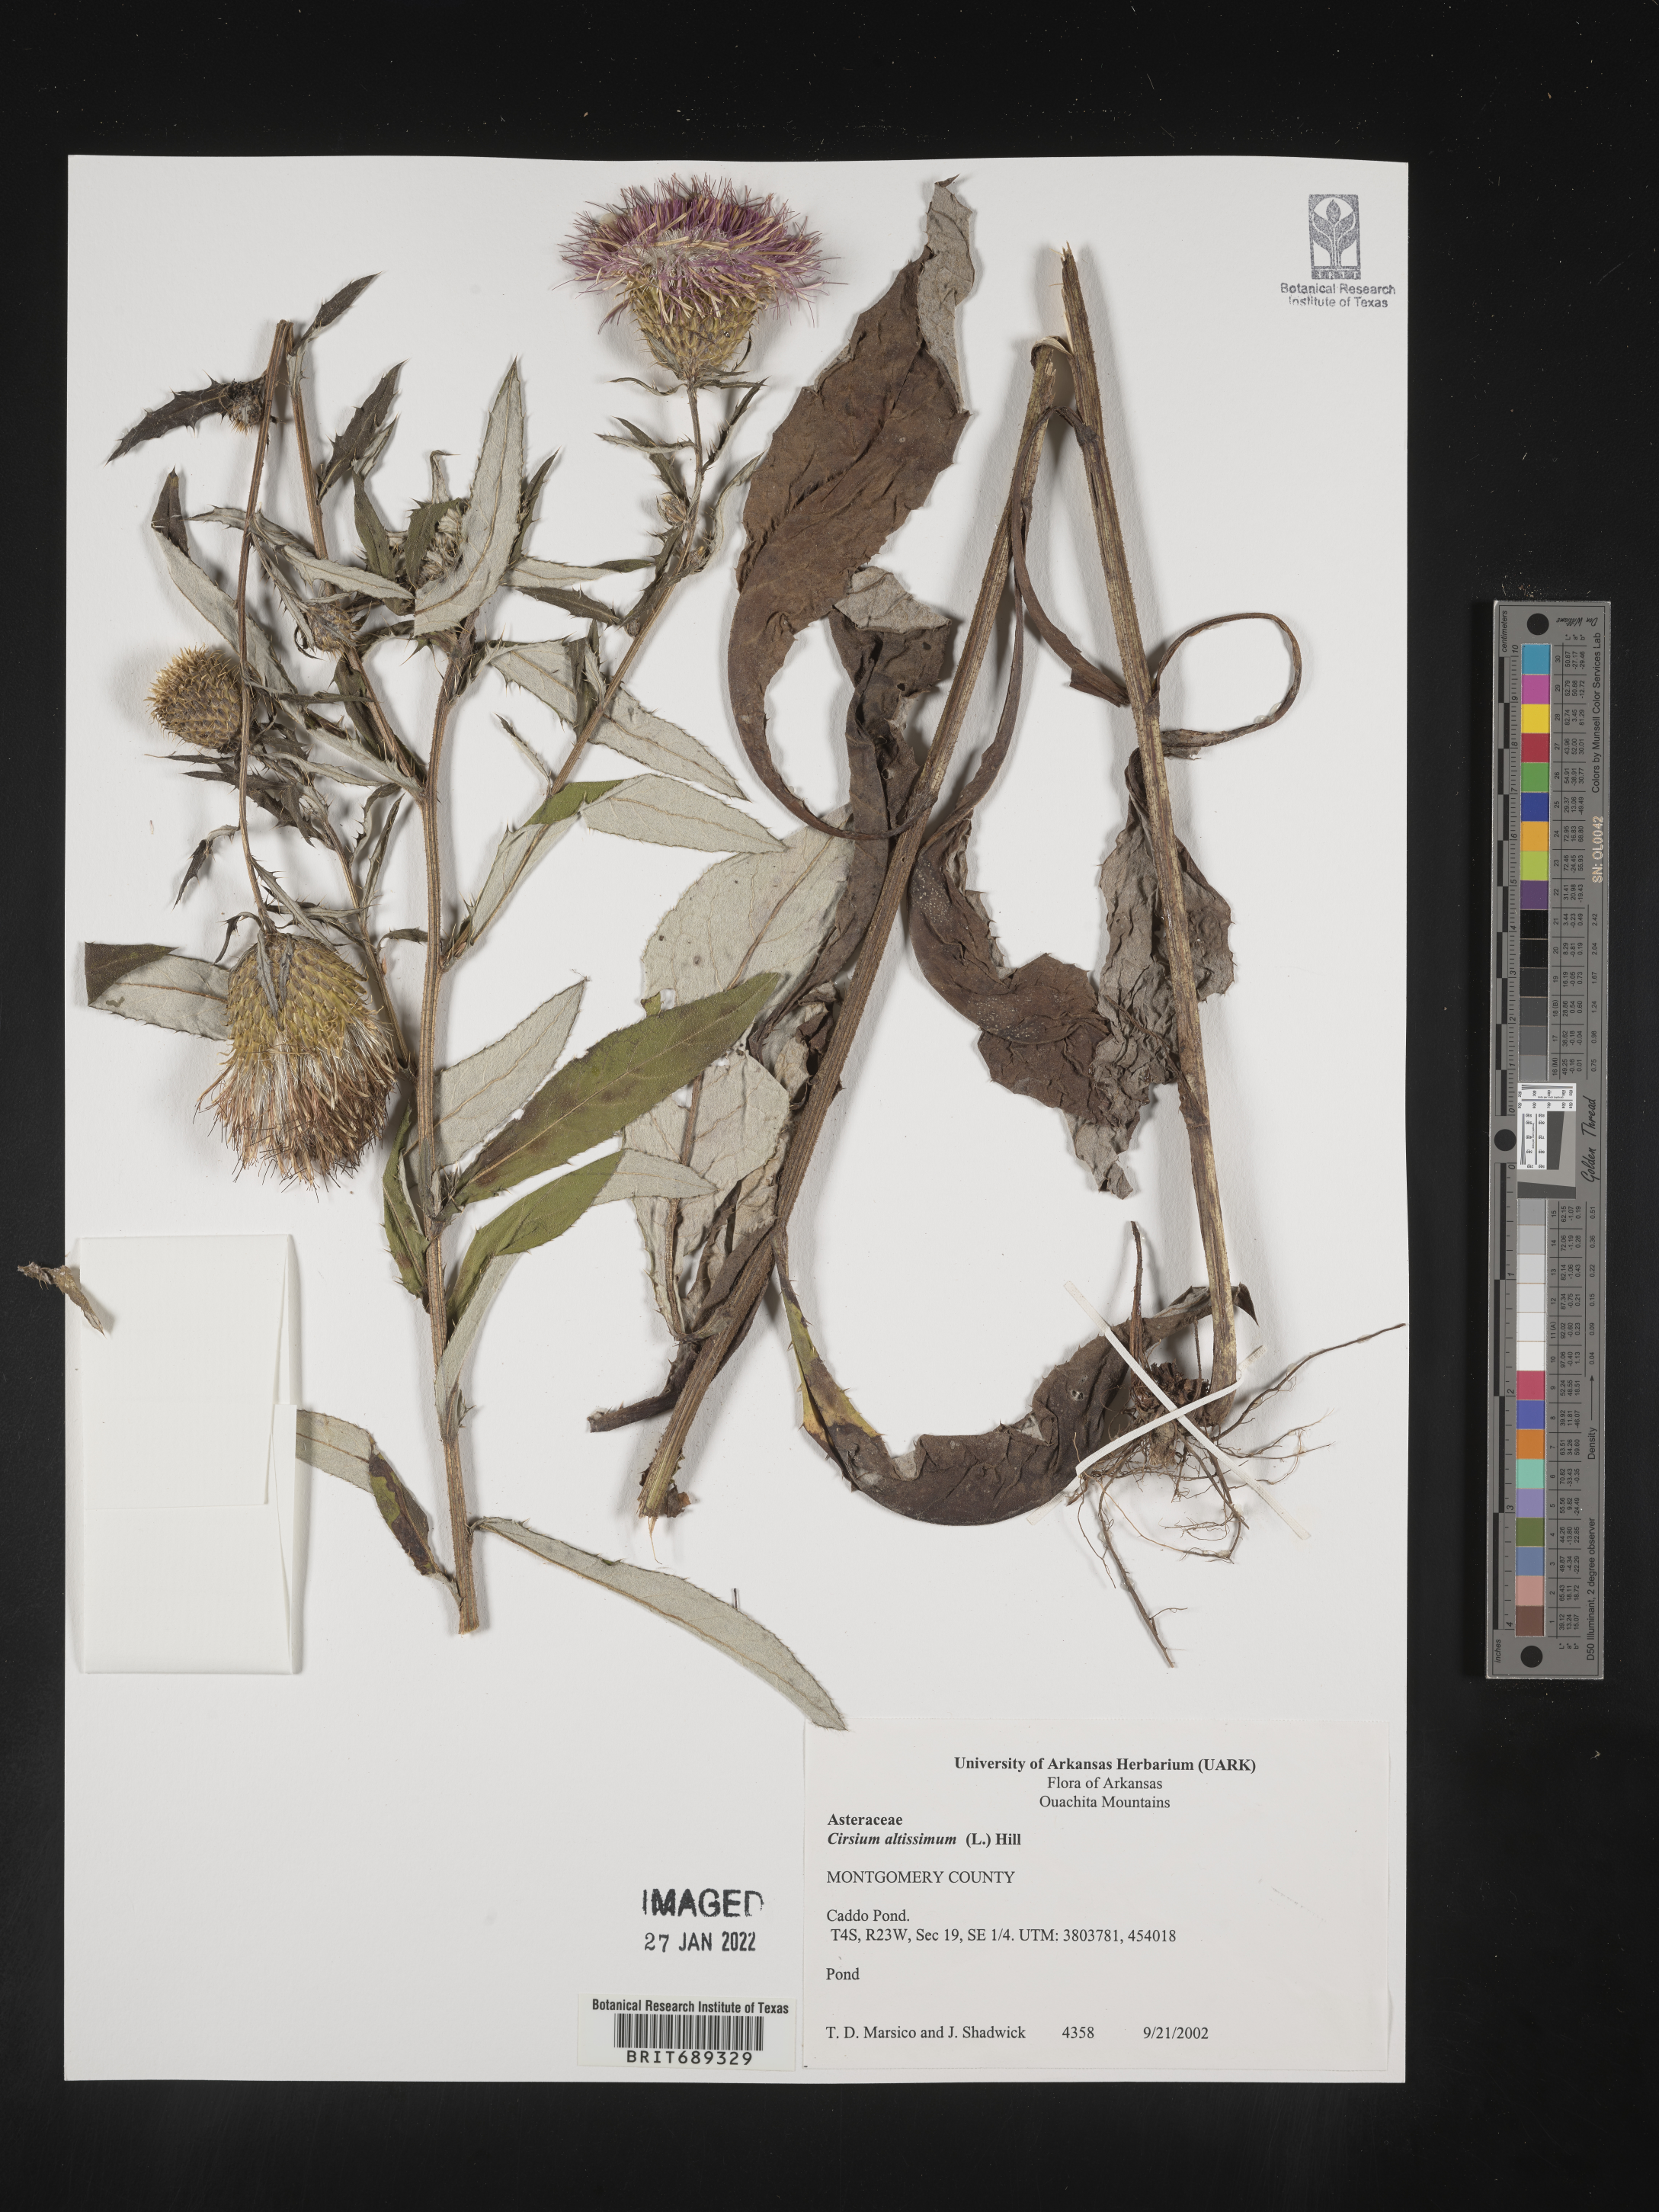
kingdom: Plantae
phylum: Tracheophyta
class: Magnoliopsida
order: Asterales
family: Asteraceae
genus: Cirsium
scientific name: Cirsium altissimum
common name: Roadside thistle
